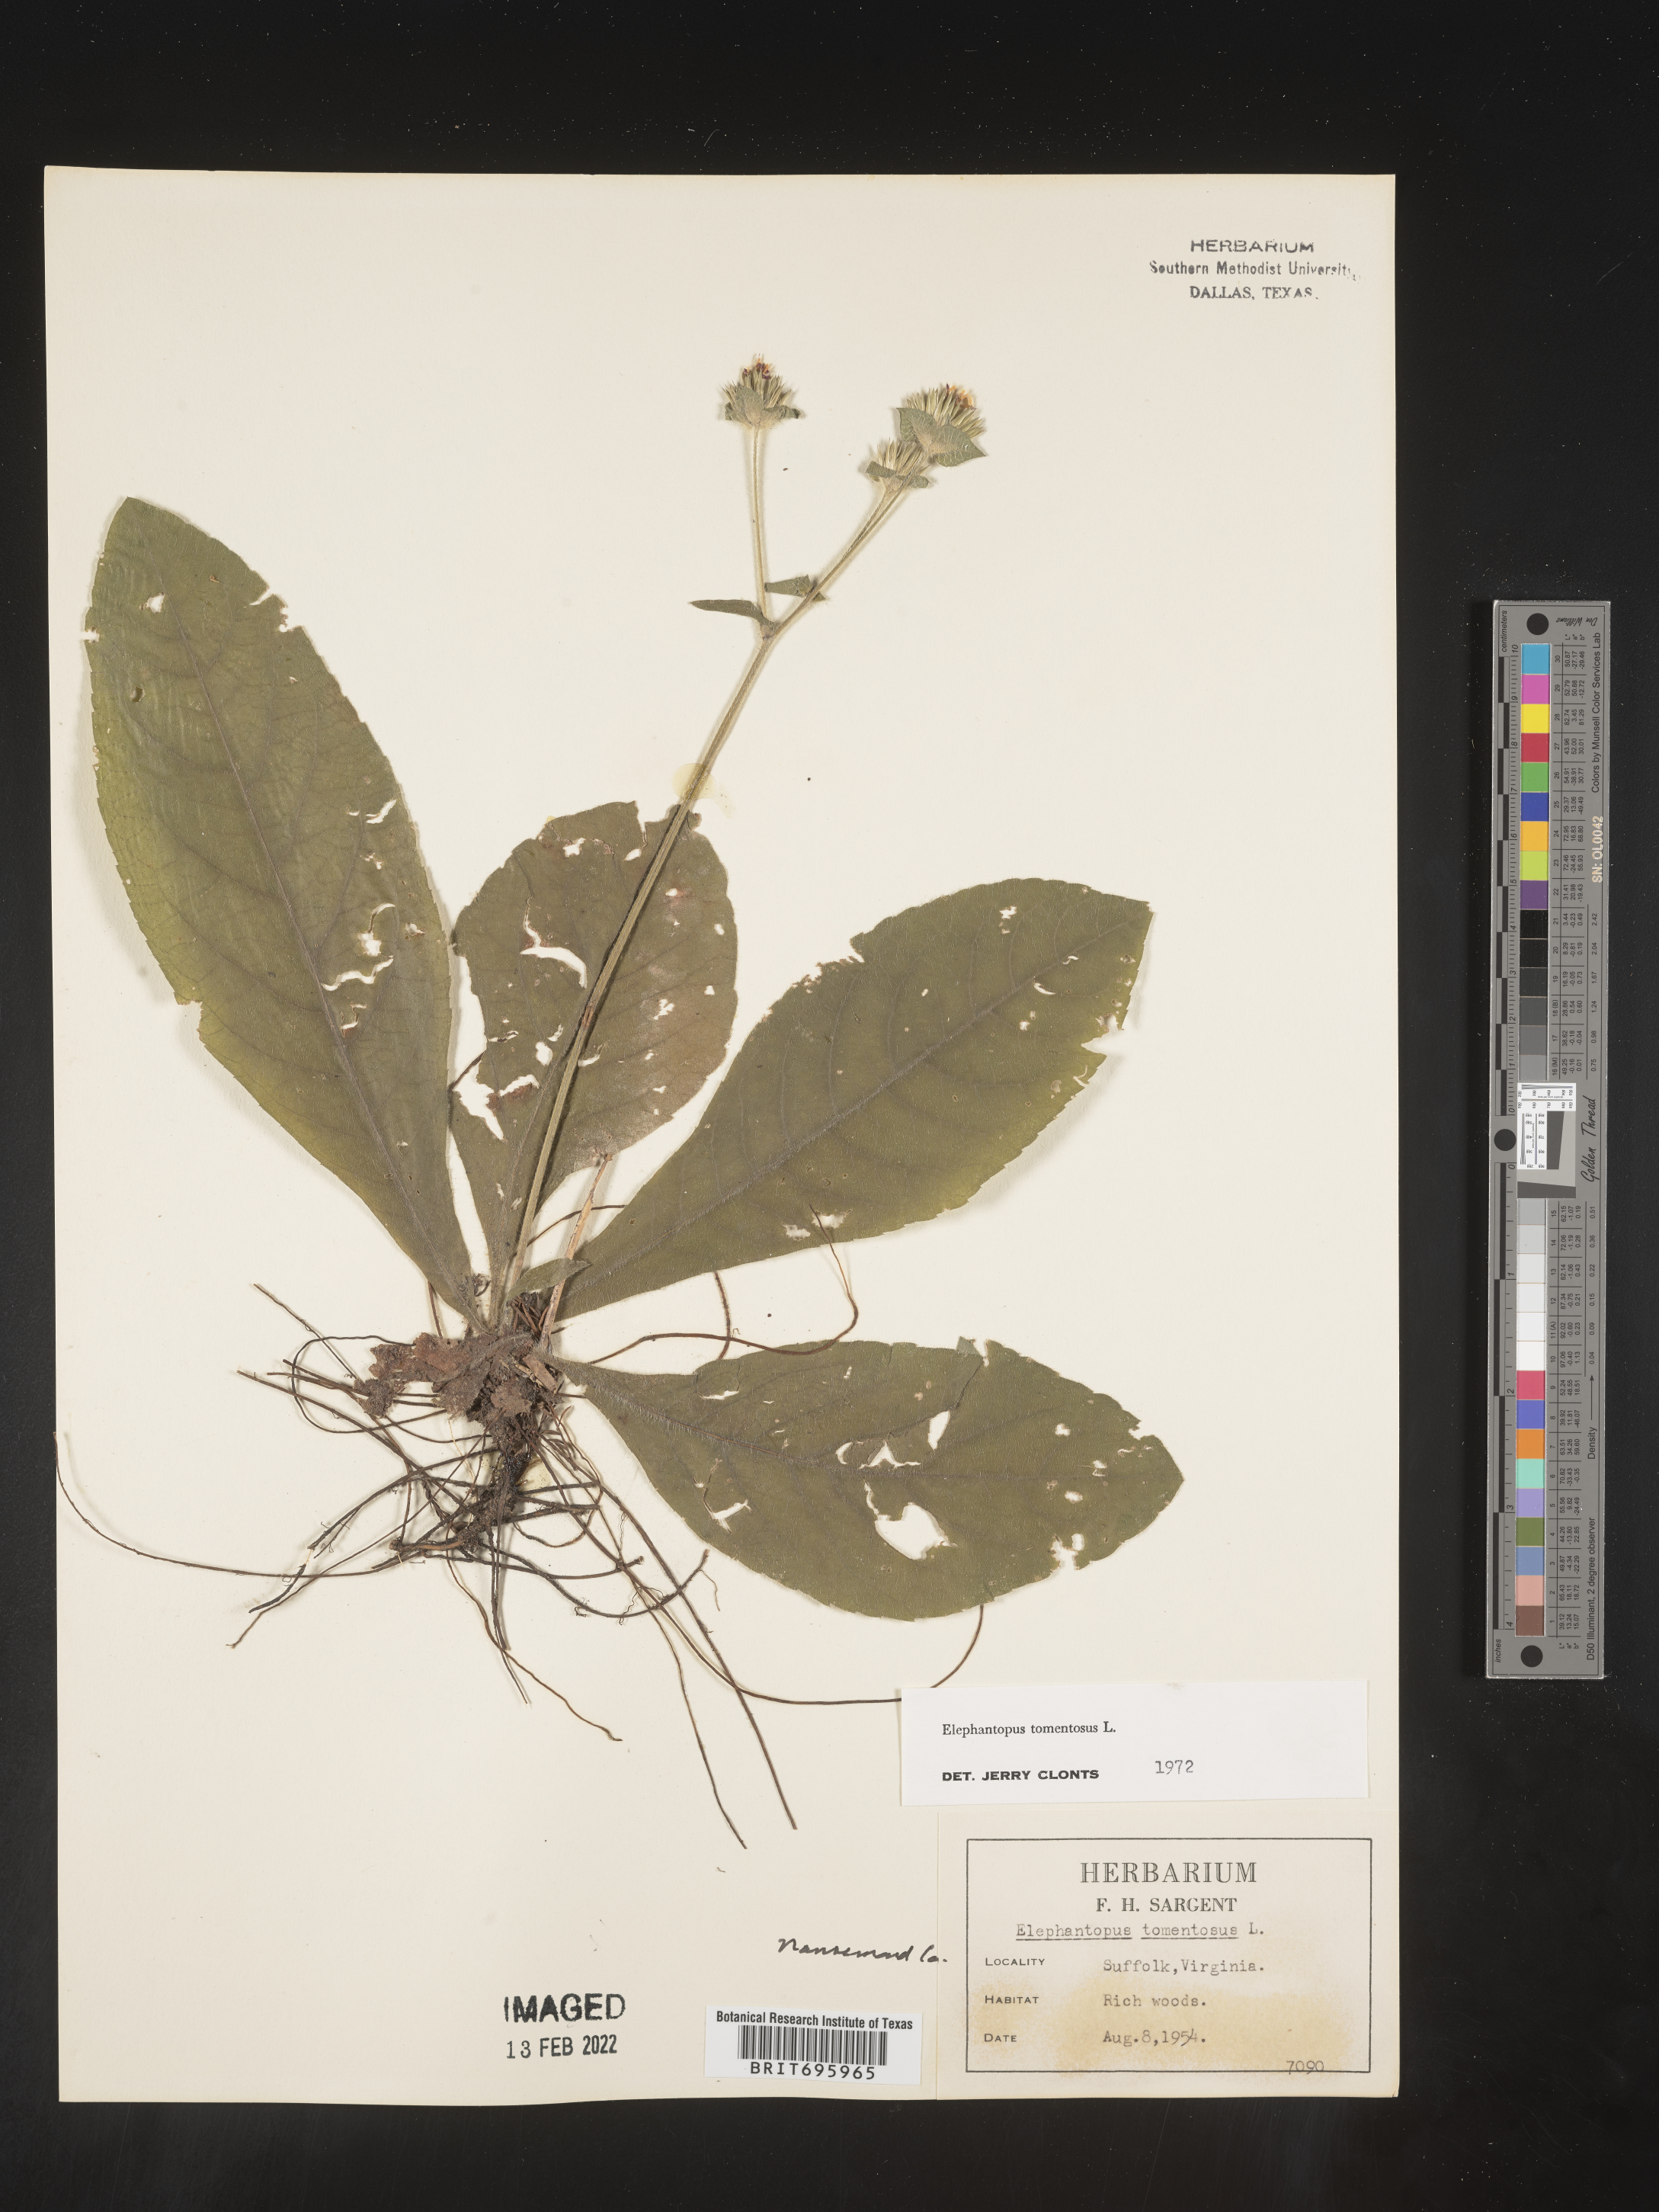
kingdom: Plantae
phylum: Tracheophyta
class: Magnoliopsida
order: Asterales
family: Asteraceae
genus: Elephantopus
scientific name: Elephantopus tomentosus
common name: Tobacco-weed
